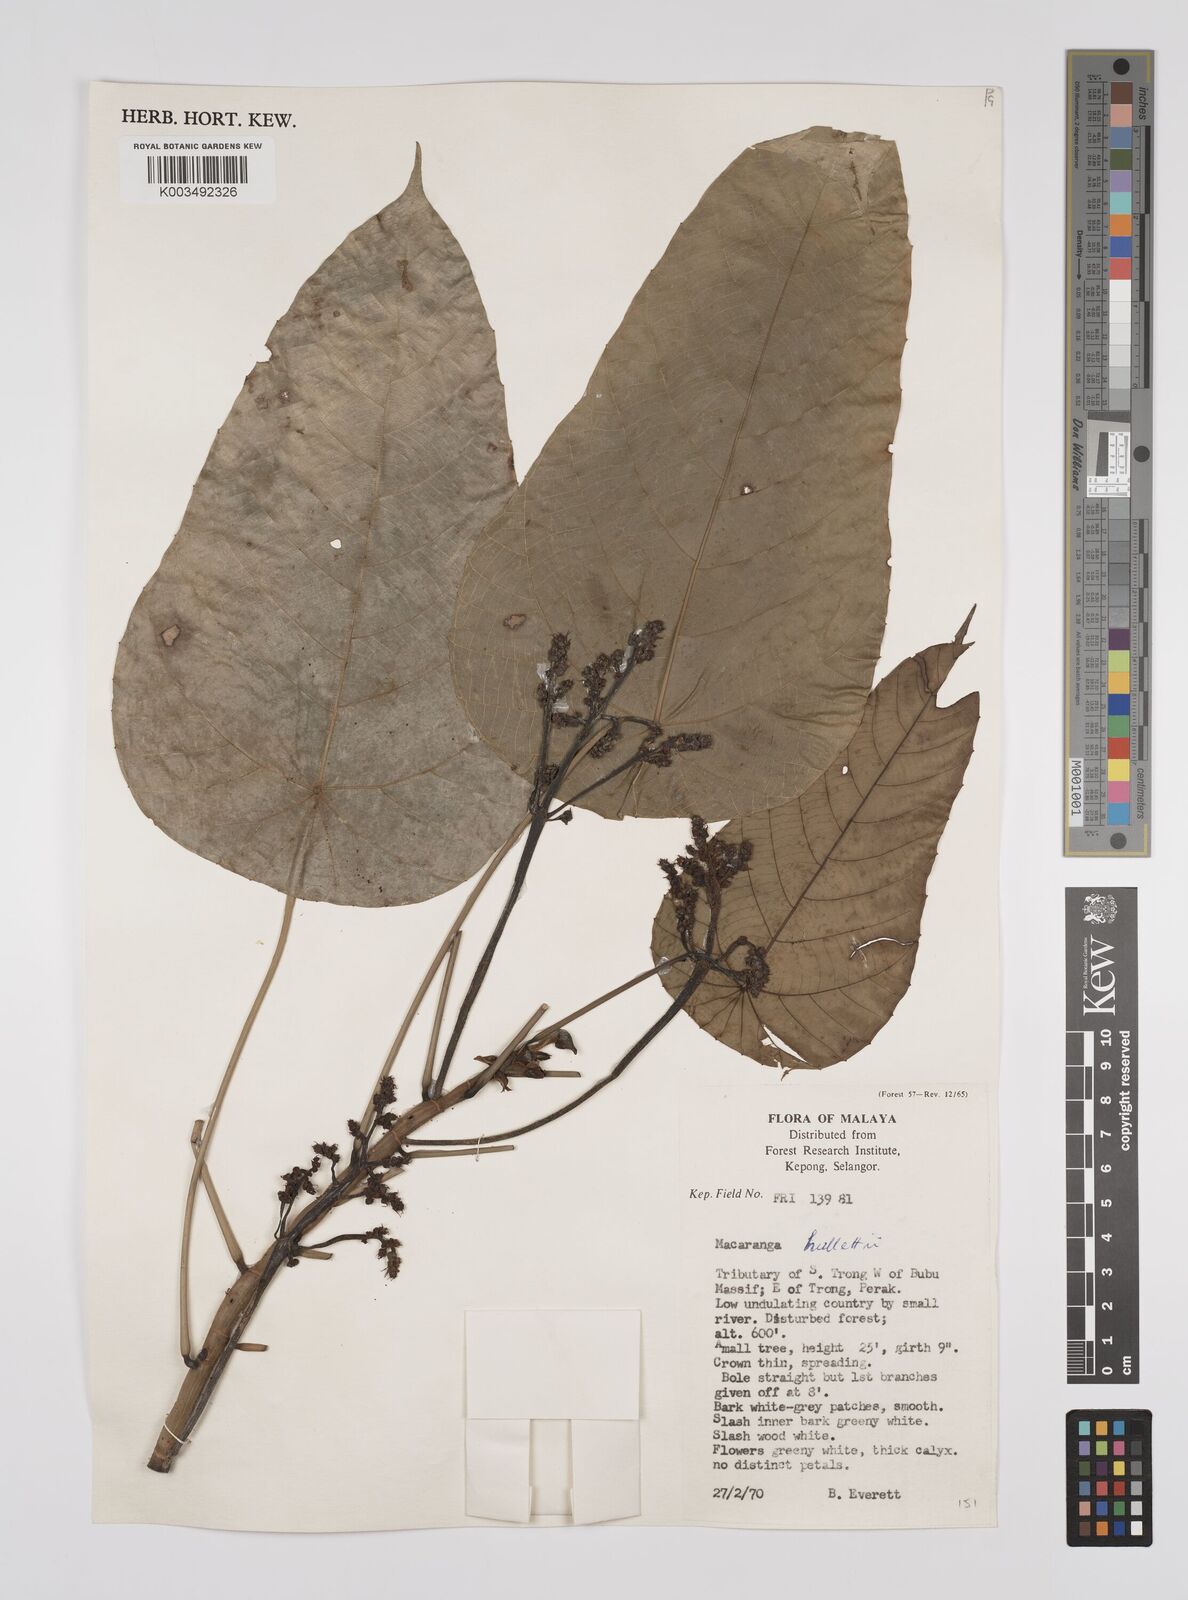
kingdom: Plantae
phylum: Tracheophyta
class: Magnoliopsida
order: Malpighiales
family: Euphorbiaceae
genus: Macaranga
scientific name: Macaranga hullettii
